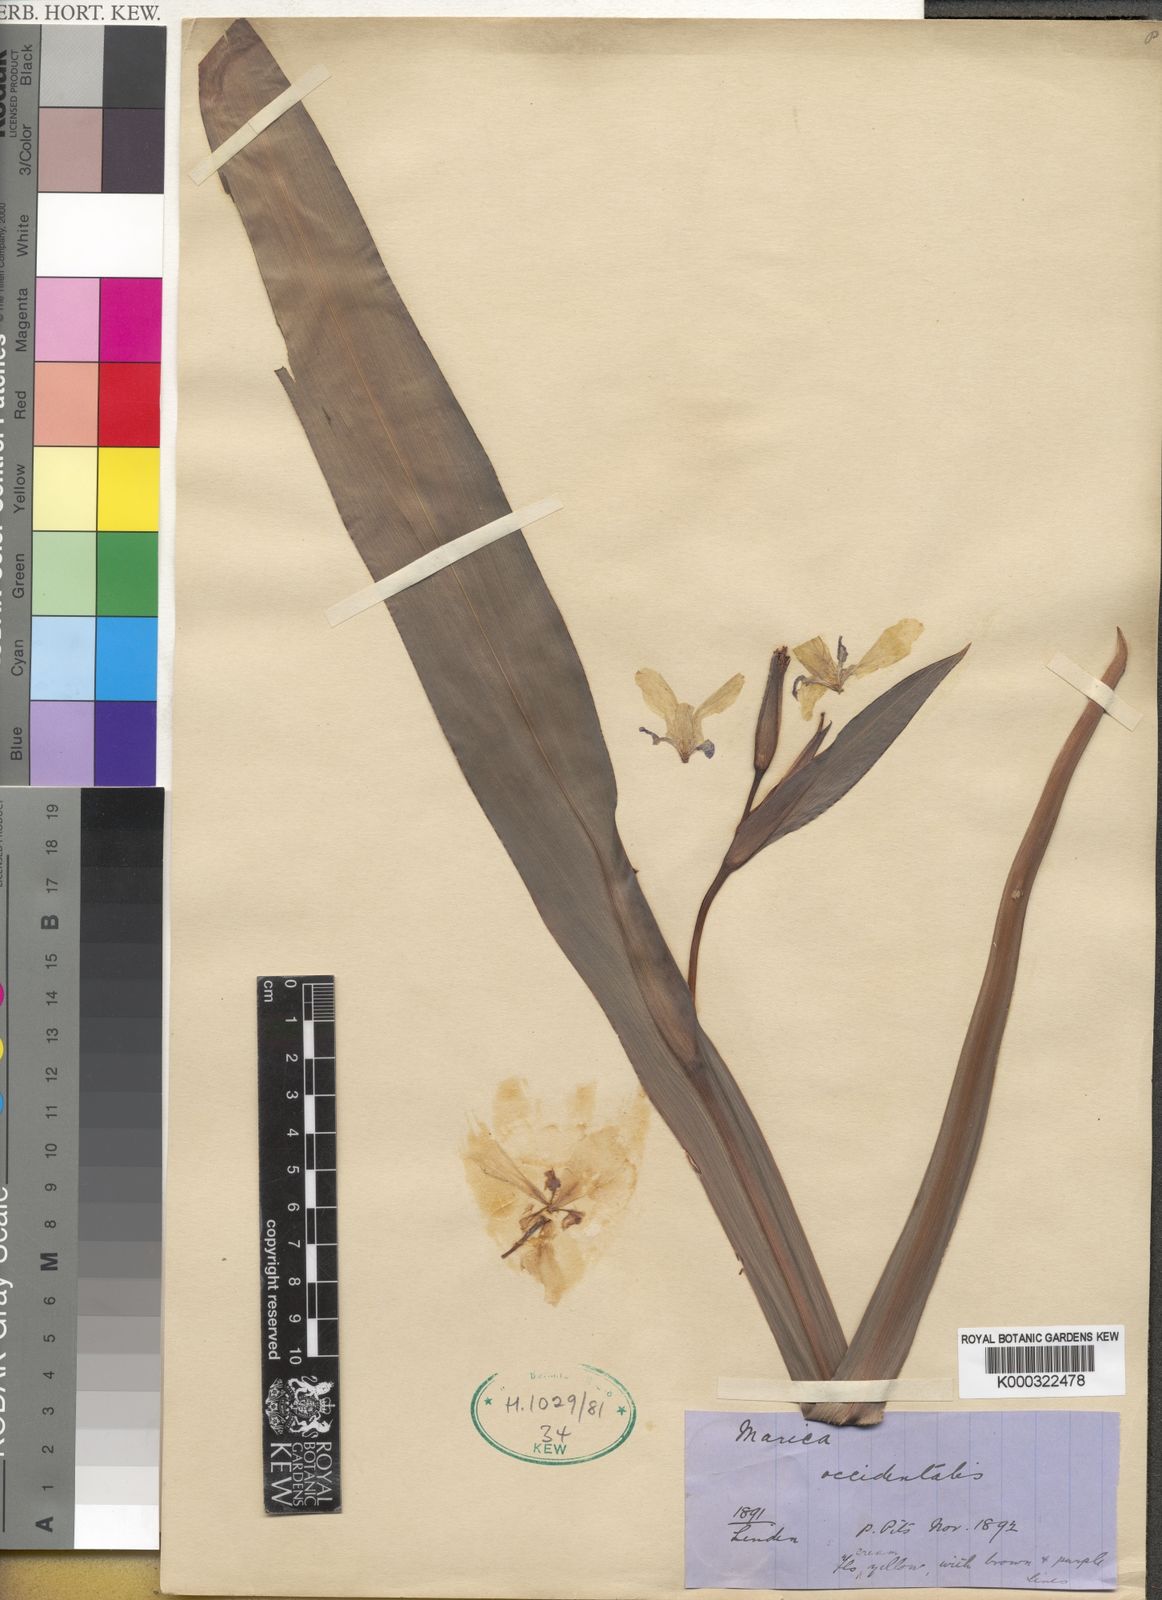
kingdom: Plantae
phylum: Tracheophyta
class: Liliopsida
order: Asparagales
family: Iridaceae
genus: Trimezia
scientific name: Trimezia humilis
